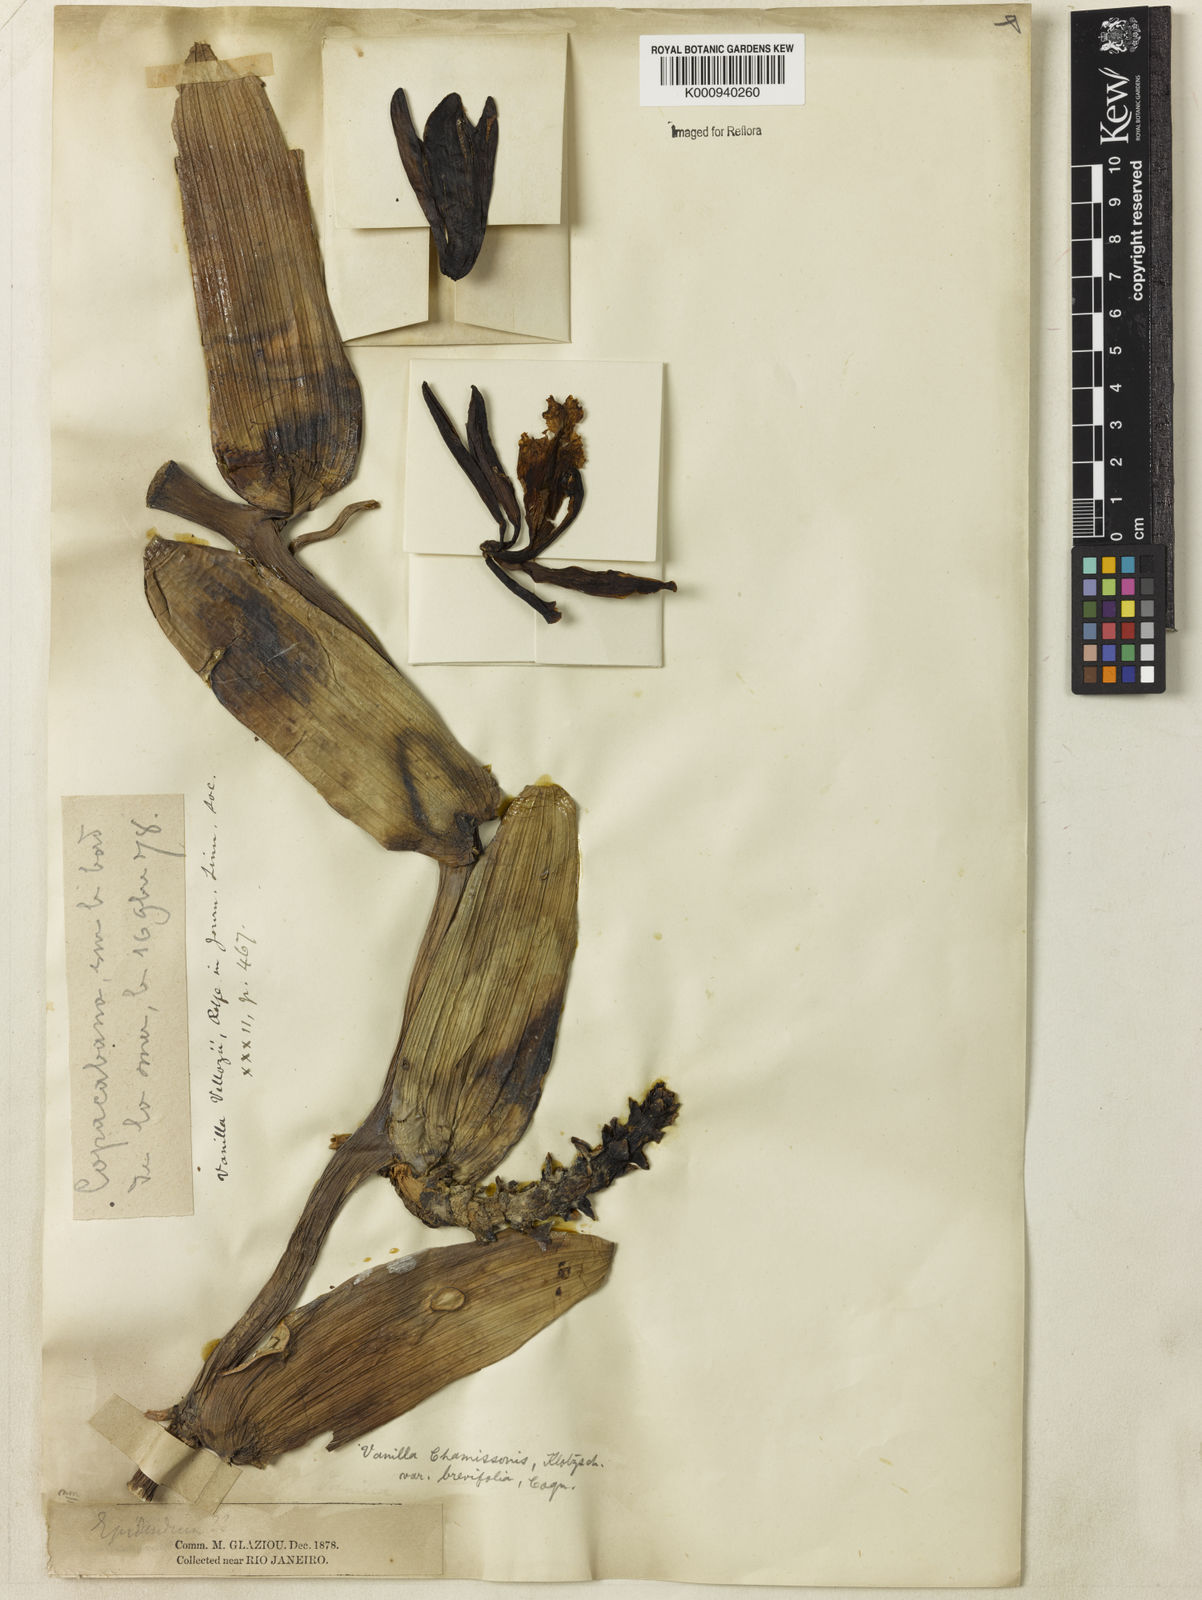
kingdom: Plantae
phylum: Tracheophyta
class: Liliopsida
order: Asparagales
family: Orchidaceae
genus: Vanilla
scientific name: Vanilla
